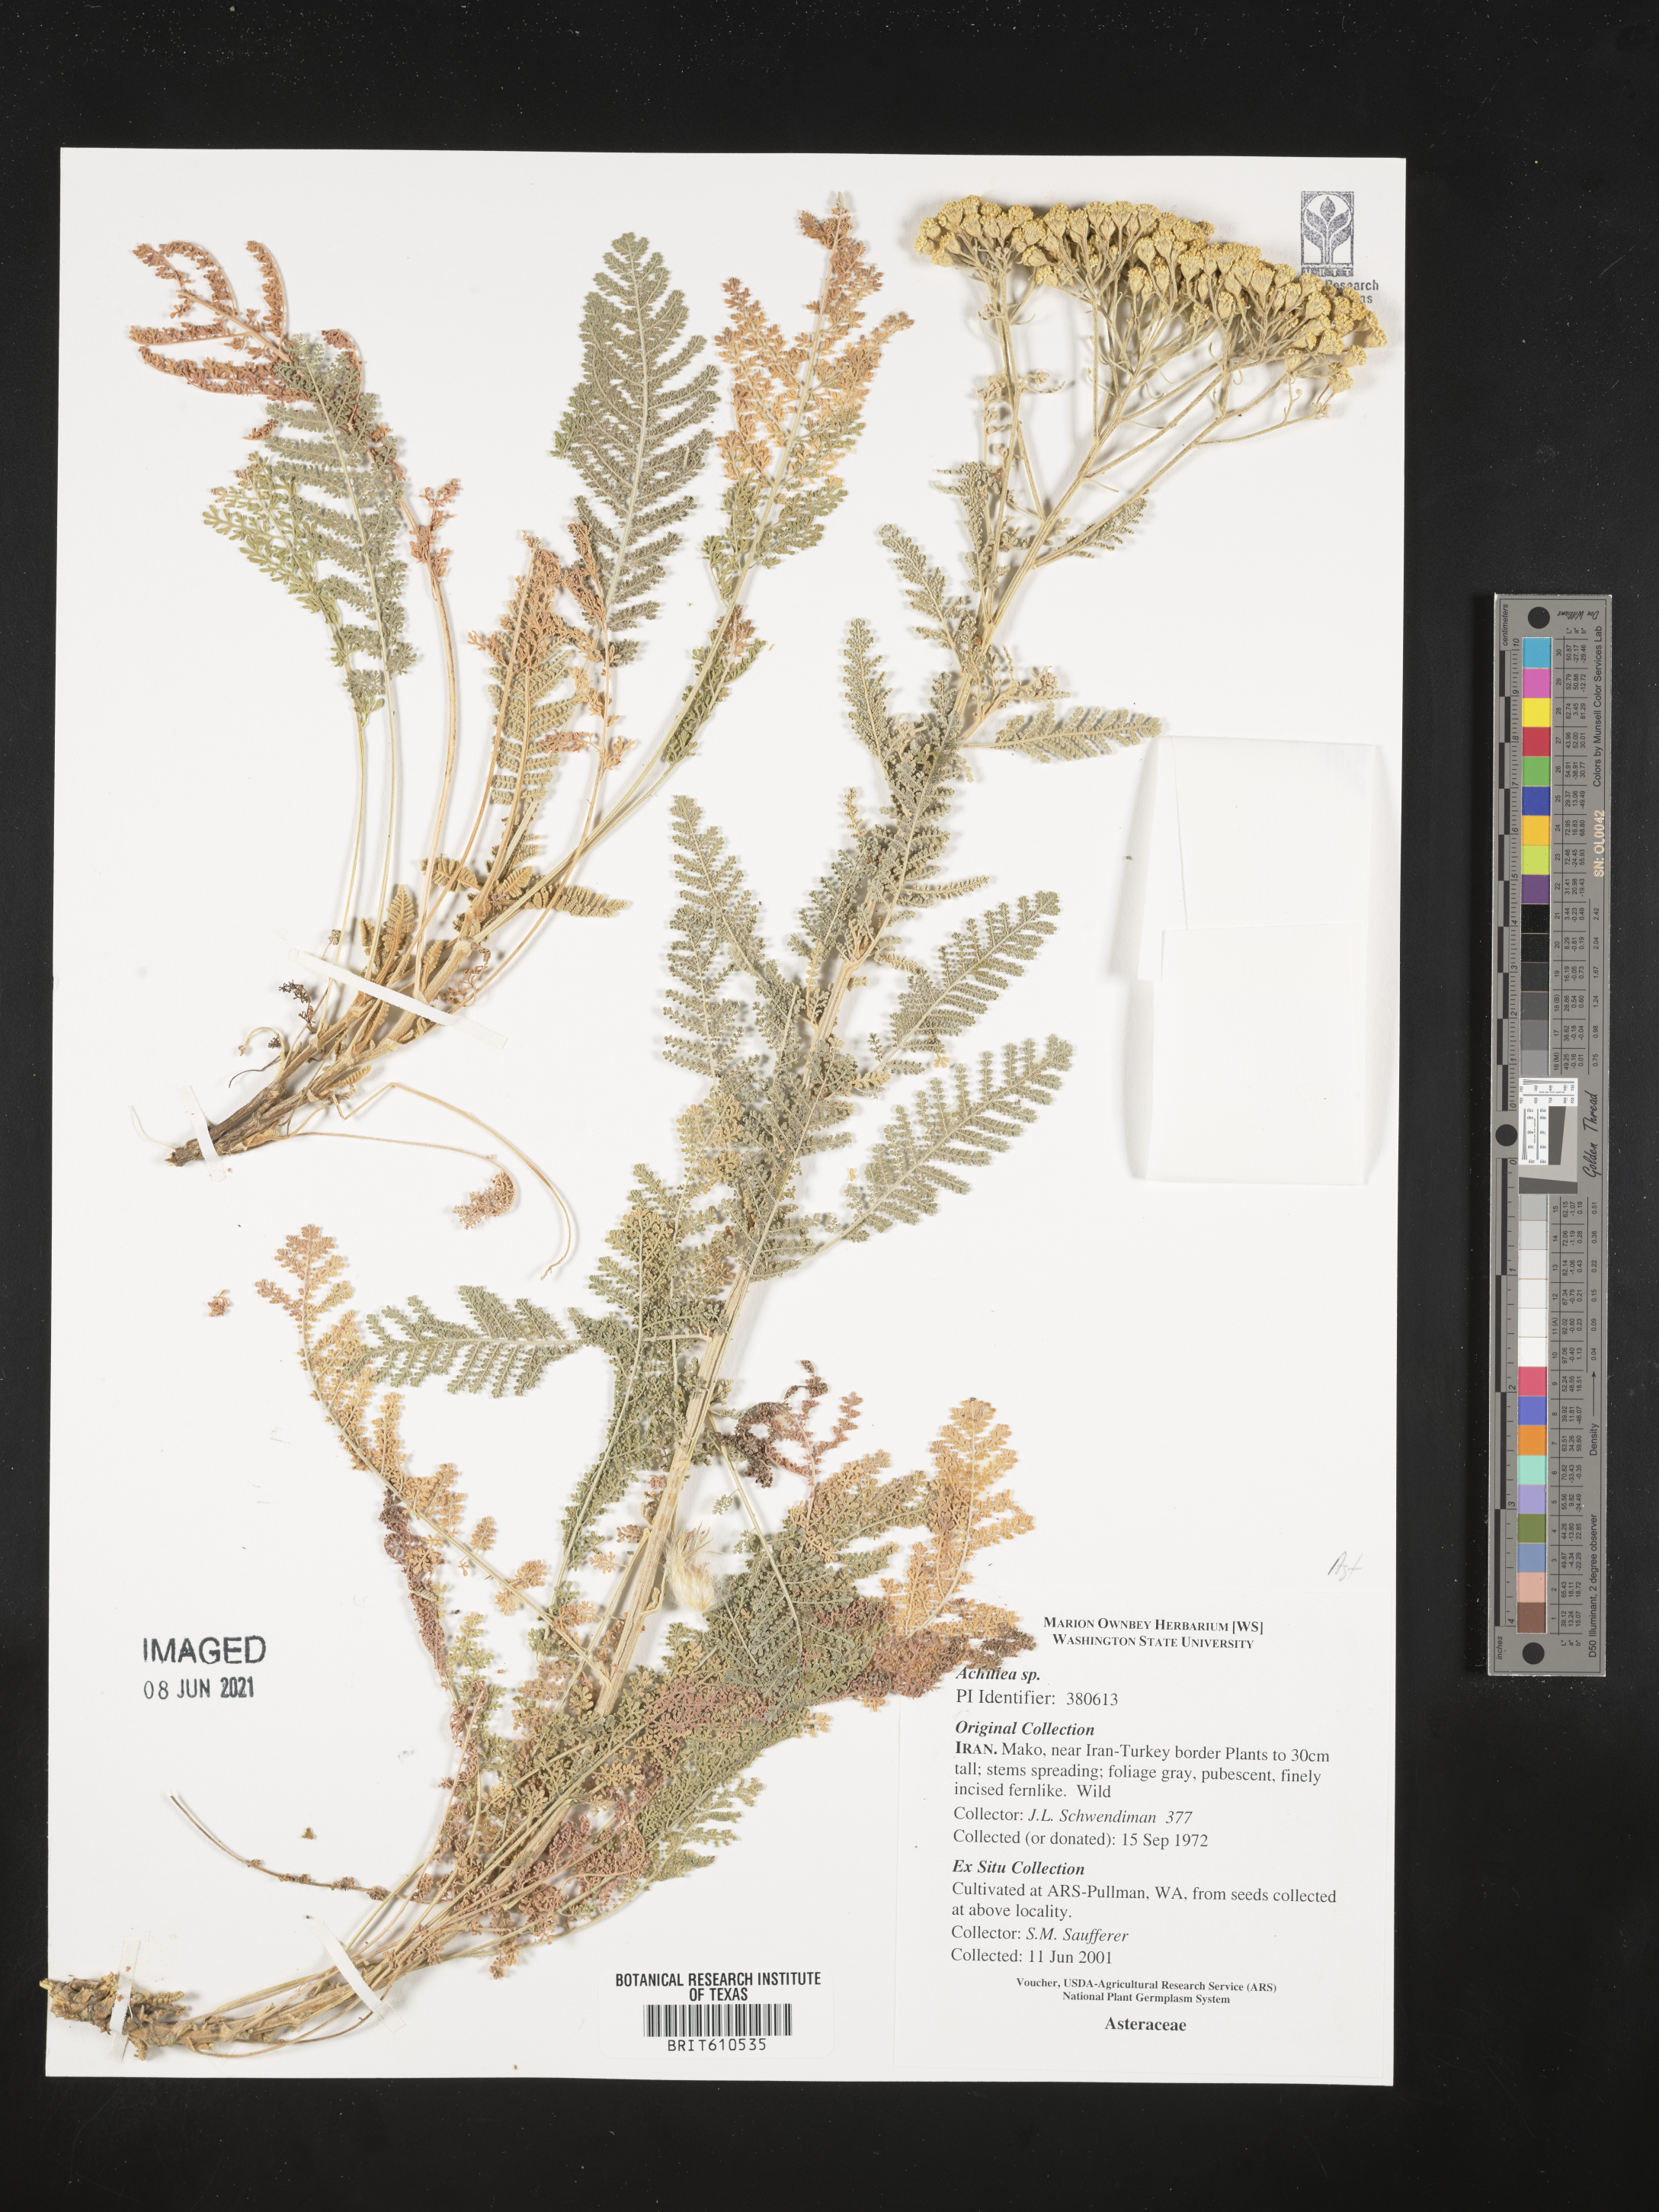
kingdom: Plantae
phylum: Tracheophyta
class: Magnoliopsida
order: Asterales
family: Asteraceae
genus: Achillea
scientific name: Achillea
